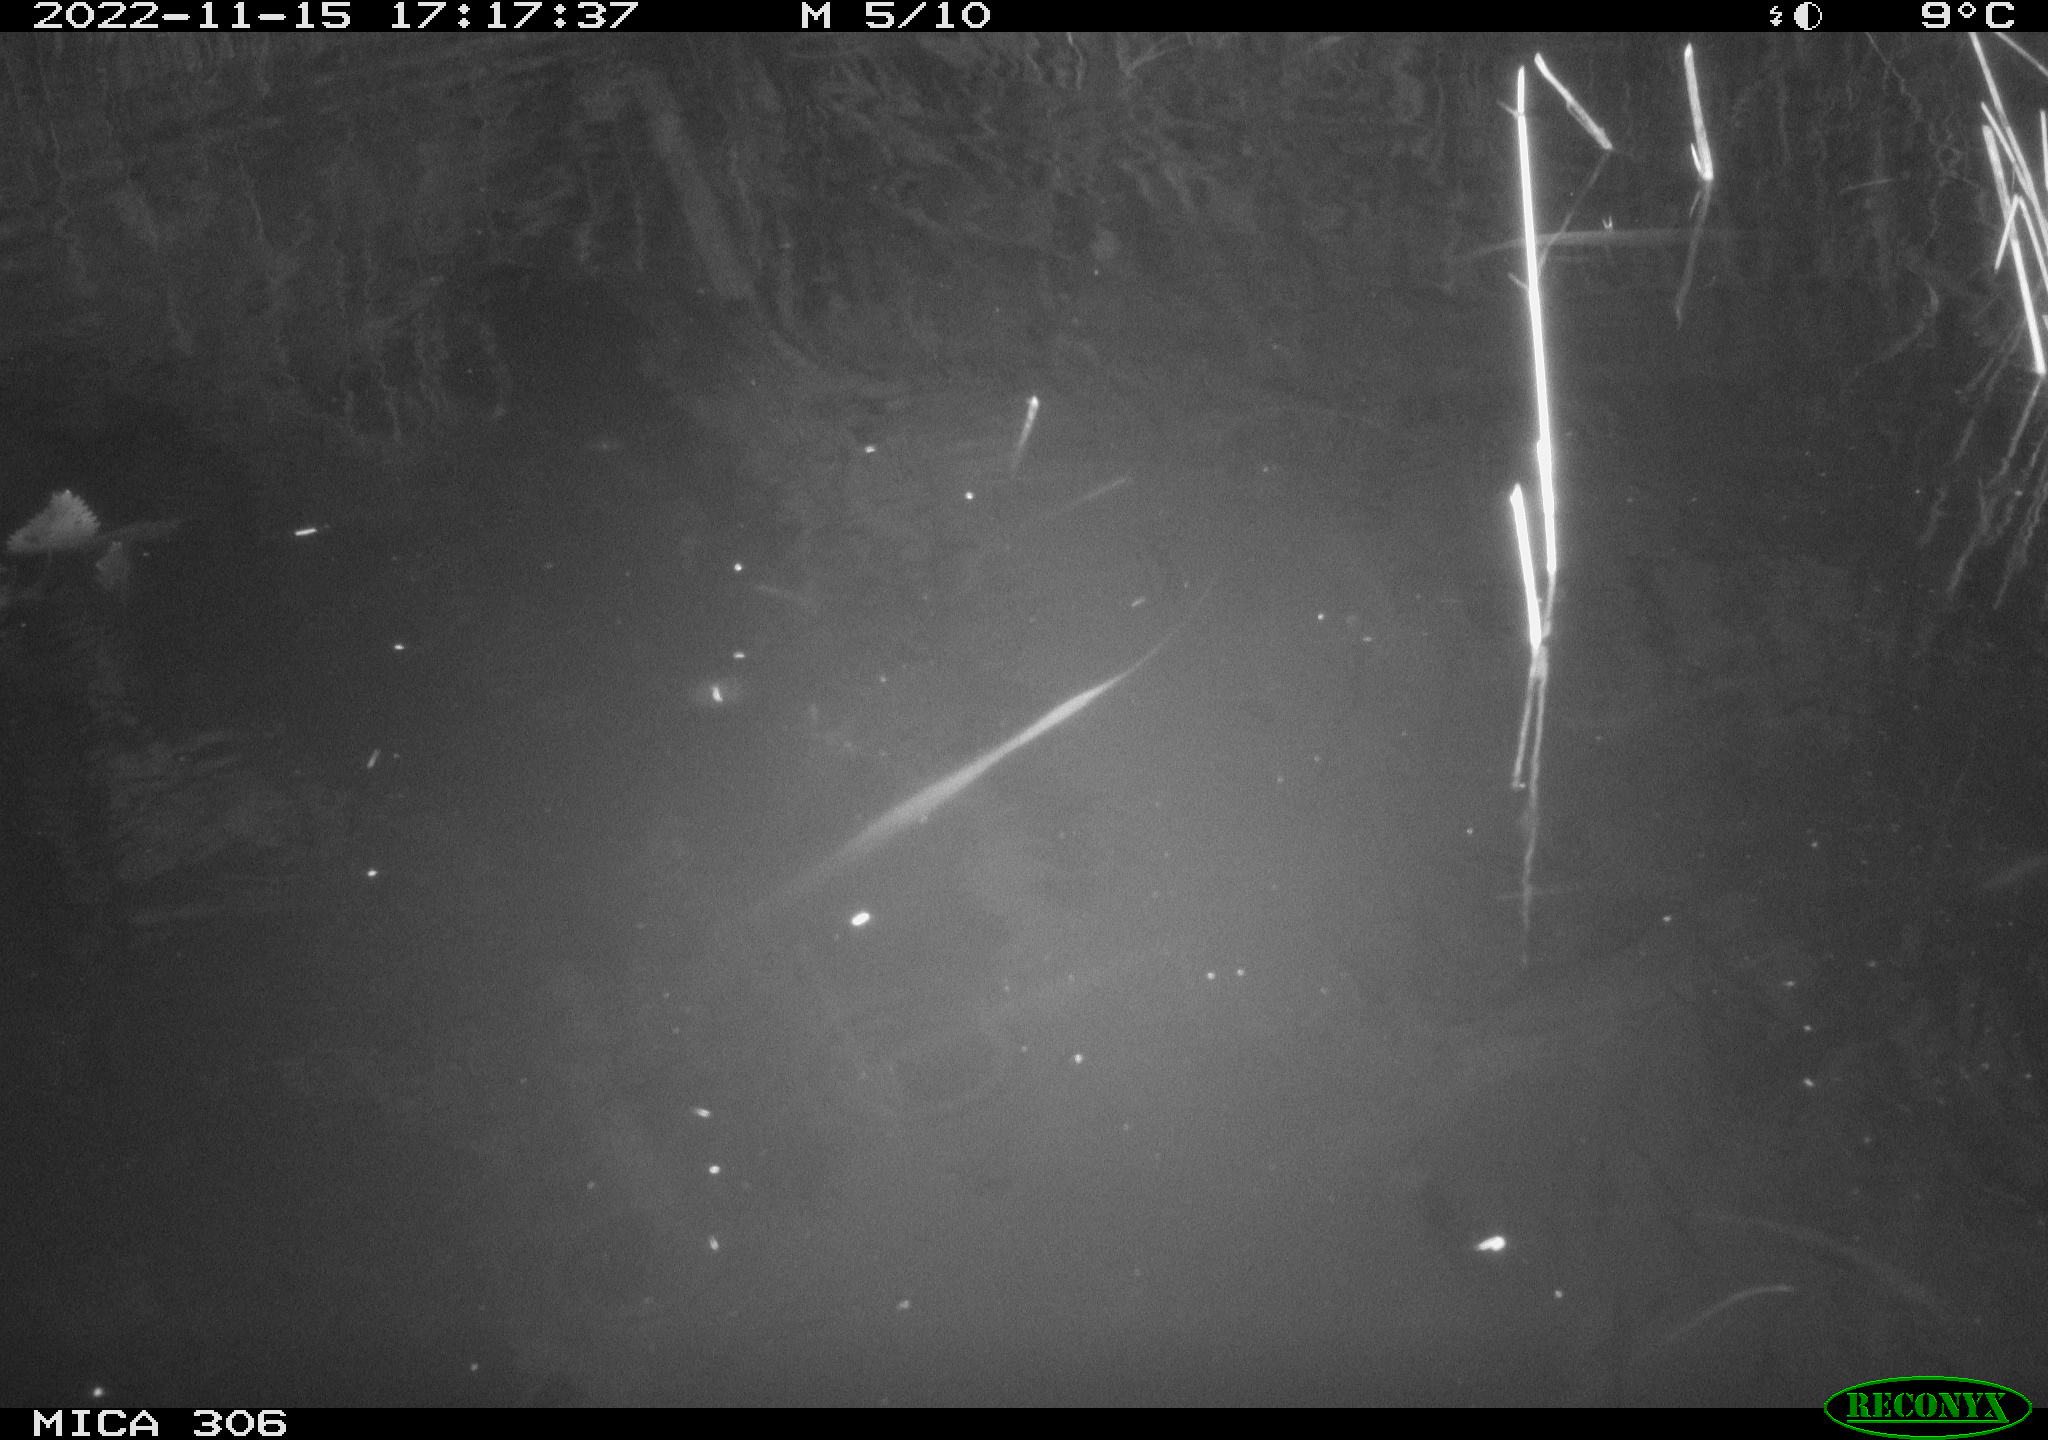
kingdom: Animalia
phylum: Chordata
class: Mammalia
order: Rodentia
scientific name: Rodentia
